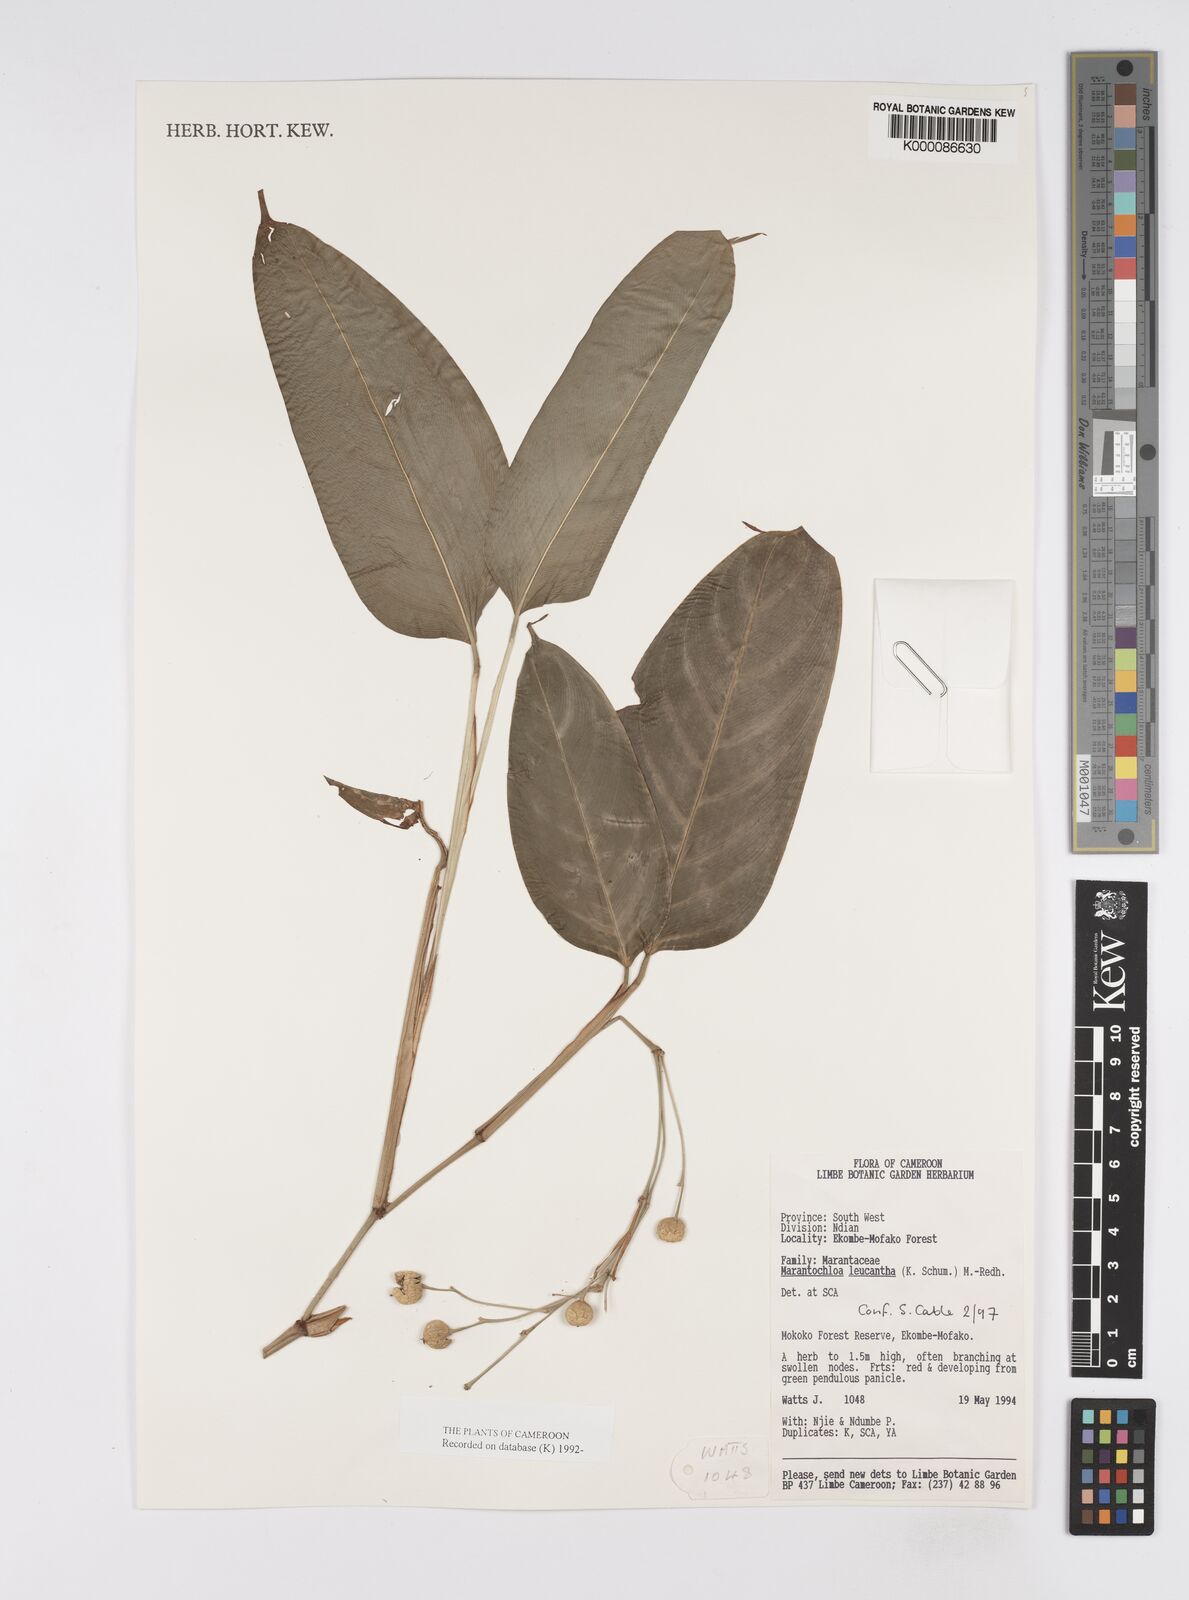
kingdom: Plantae
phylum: Tracheophyta
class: Liliopsida
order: Zingiberales
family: Marantaceae
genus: Marantochloa
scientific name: Marantochloa leucantha
